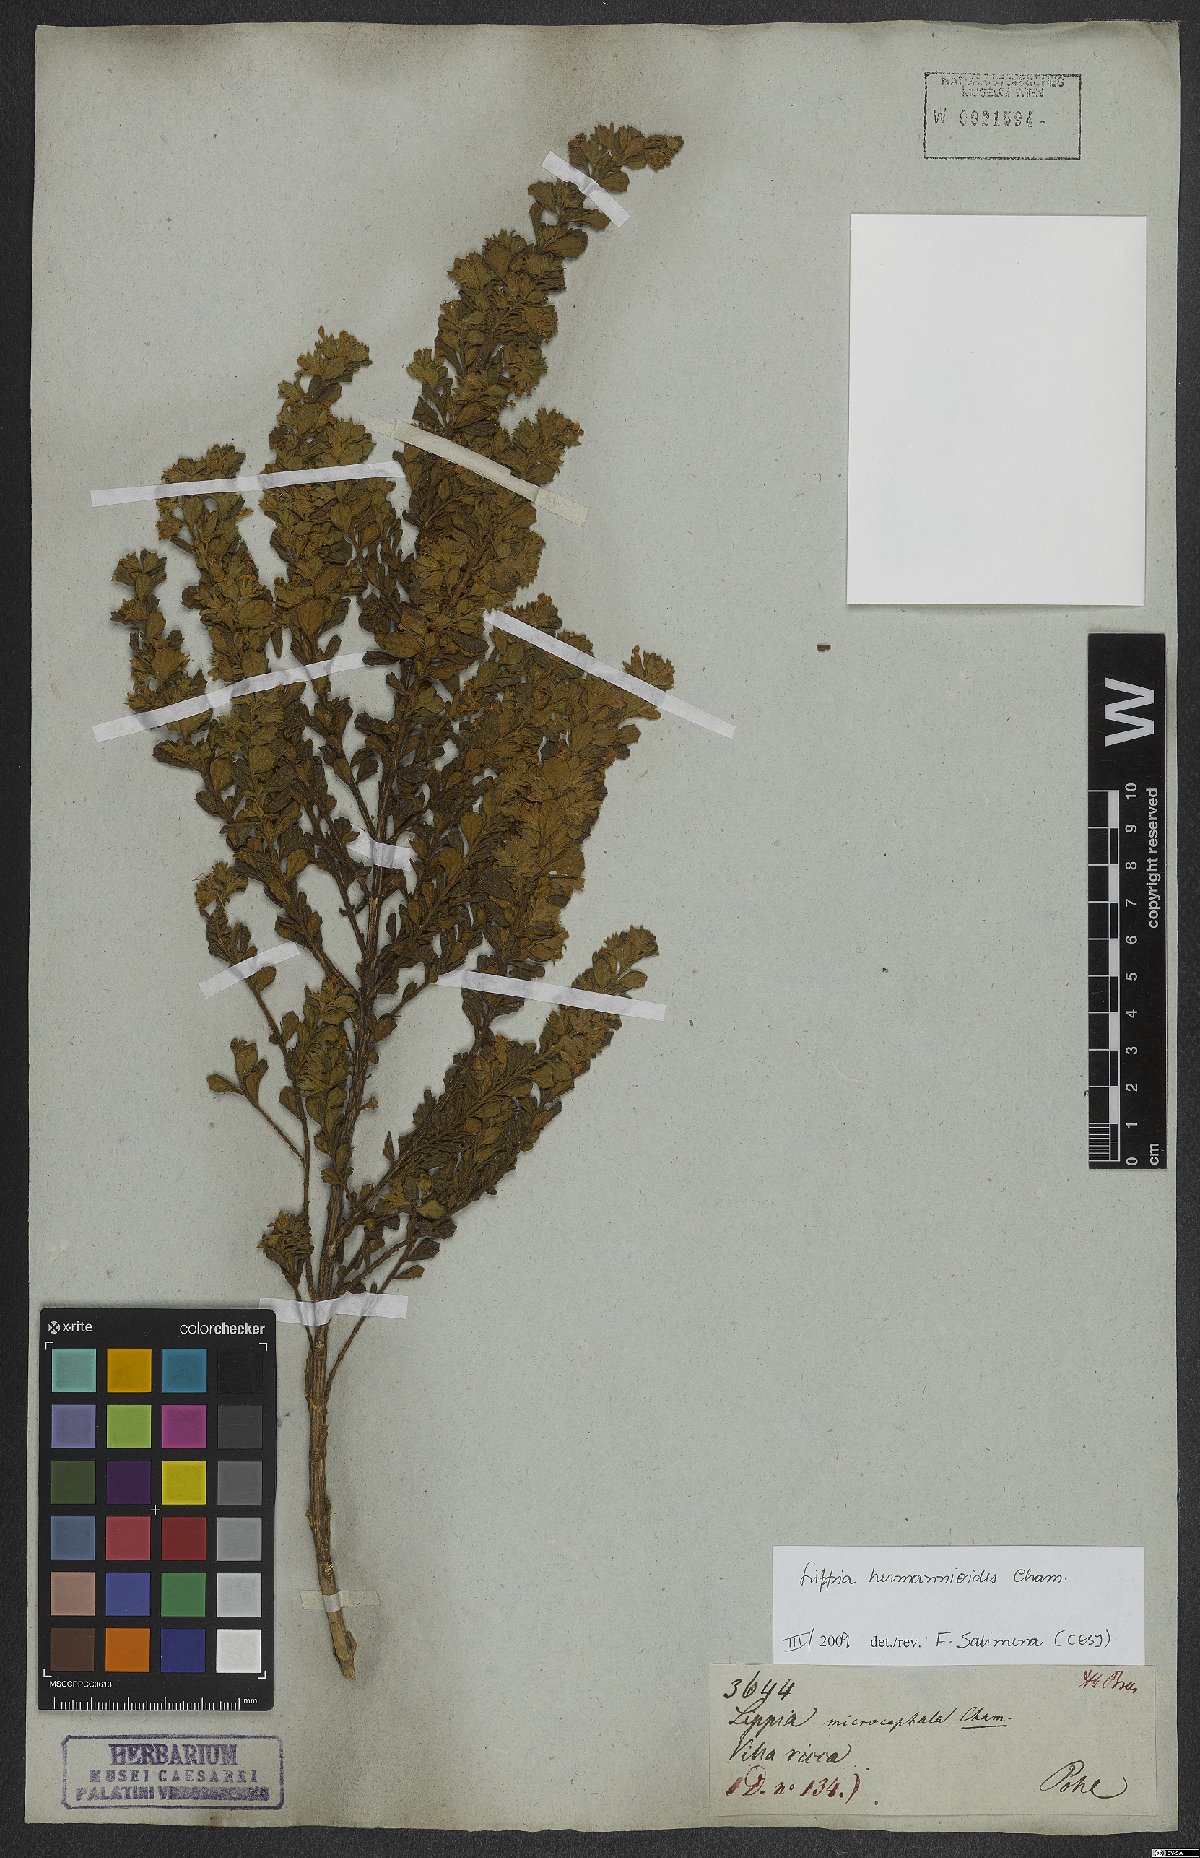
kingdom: Plantae
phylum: Tracheophyta
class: Magnoliopsida
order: Lamiales
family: Verbenaceae
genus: Lippia
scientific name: Lippia hermannioides
